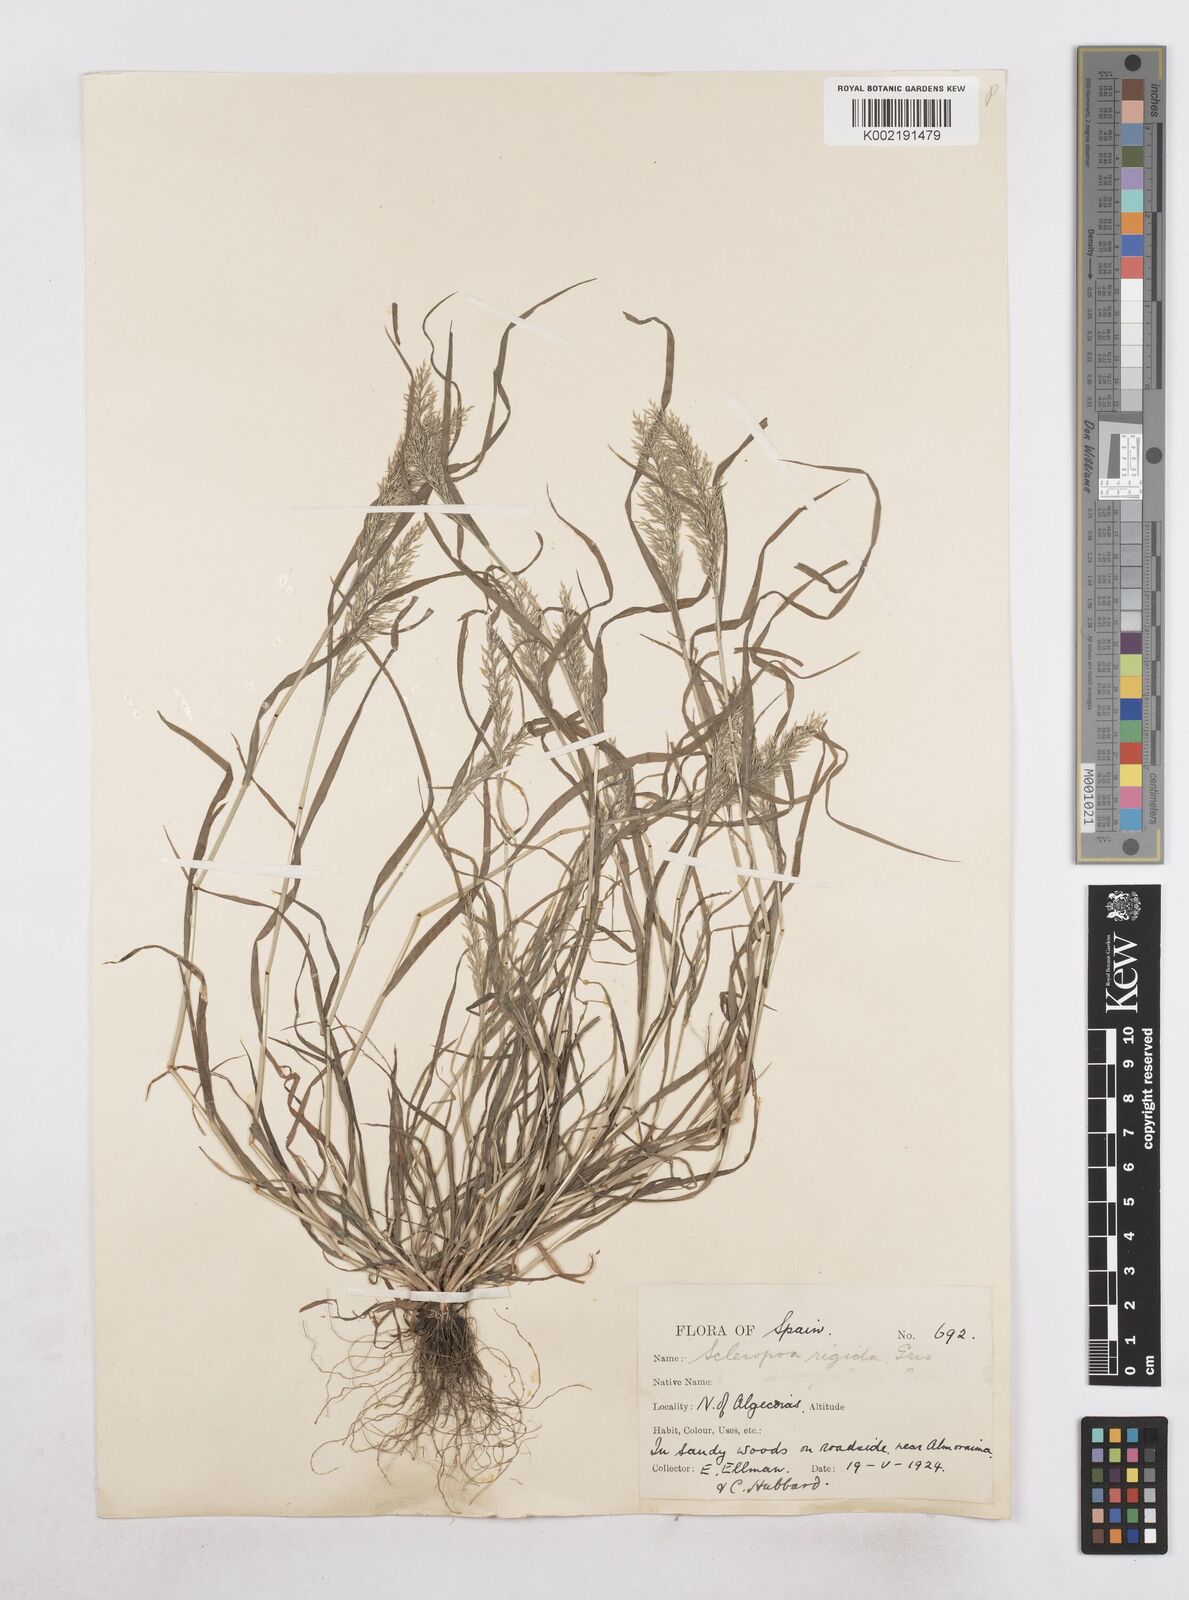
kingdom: Plantae
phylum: Tracheophyta
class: Liliopsida
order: Poales
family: Poaceae
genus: Catapodium
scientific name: Catapodium rigidum
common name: Fern-grass
